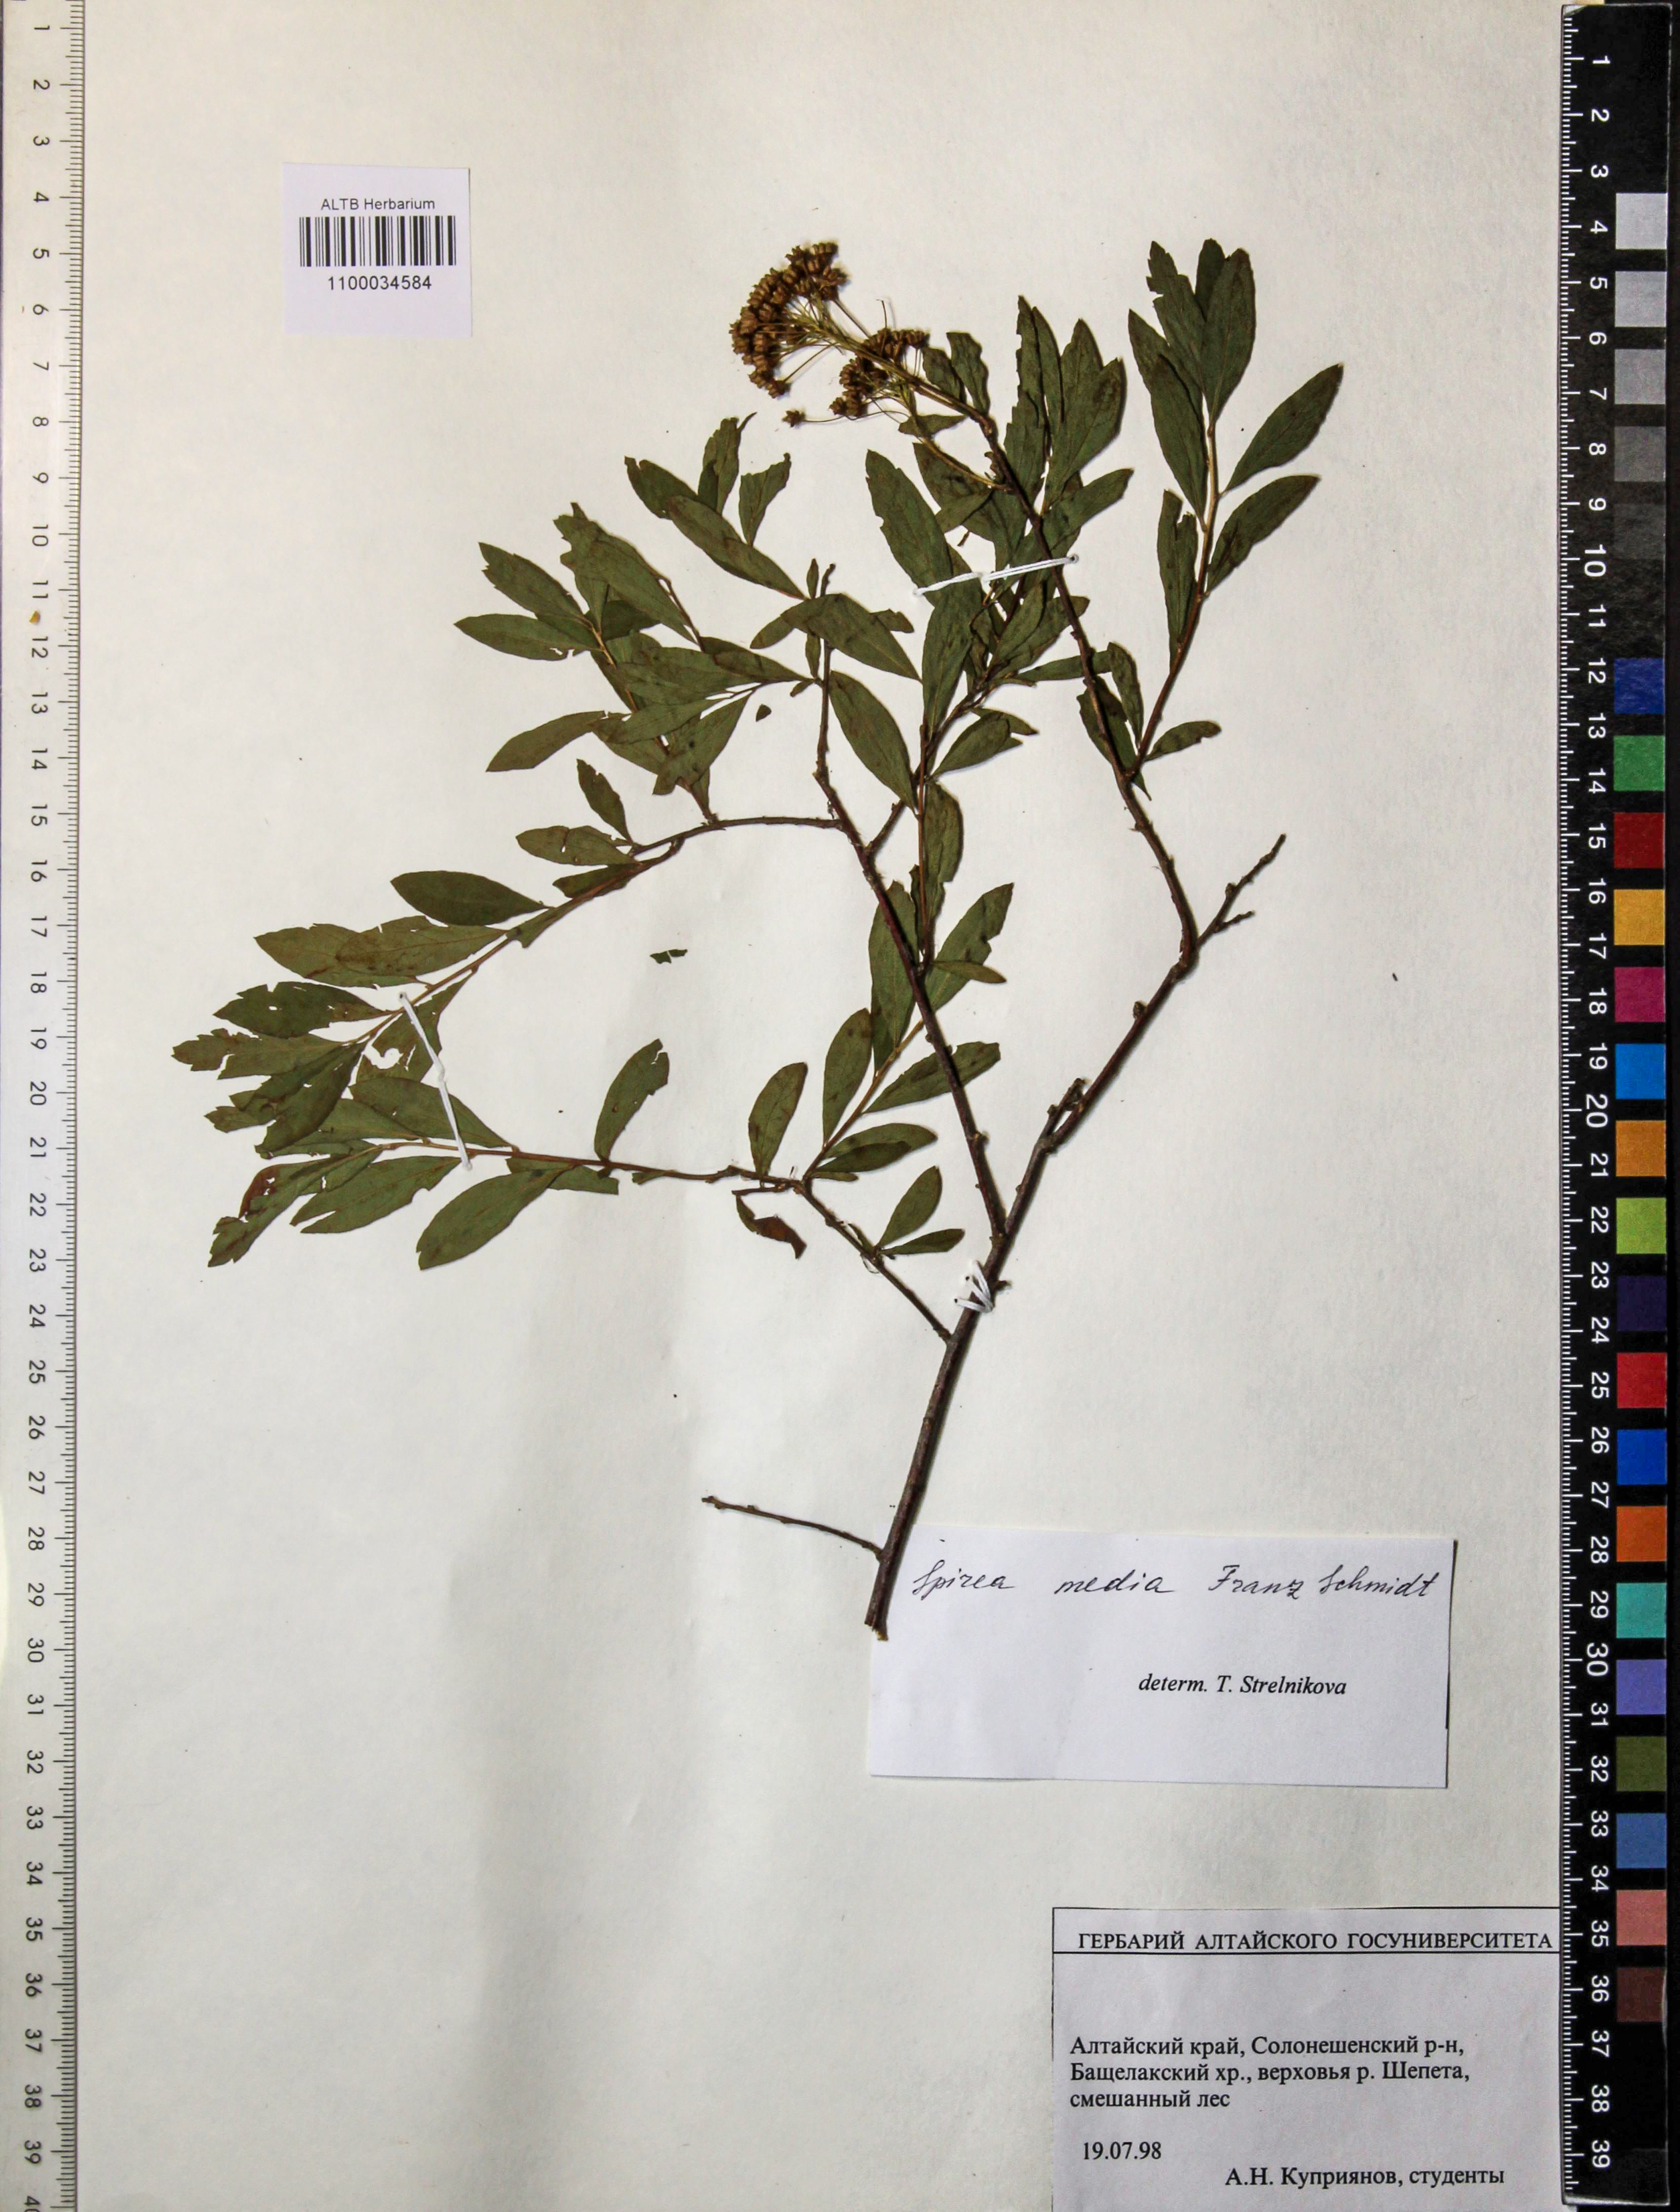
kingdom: Plantae
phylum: Tracheophyta
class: Magnoliopsida
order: Rosales
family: Rosaceae
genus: Spiraea
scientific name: Spiraea media
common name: Russian spiraea
